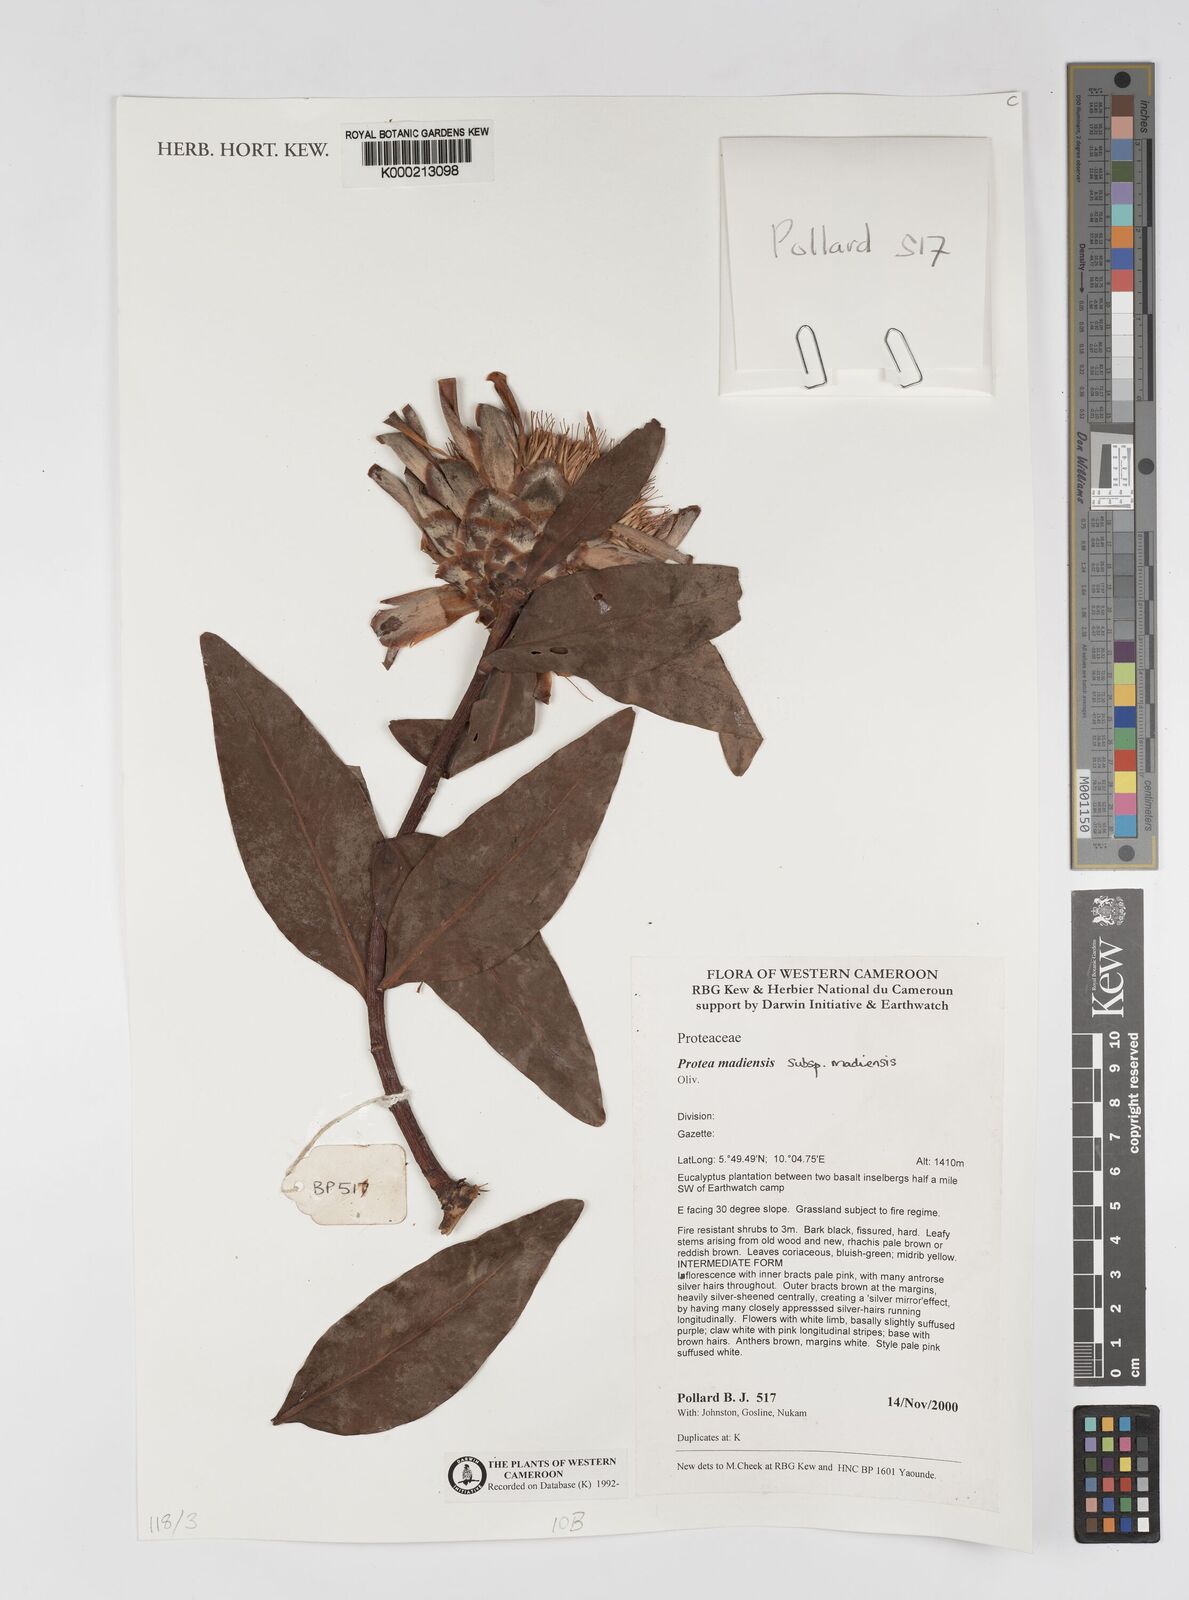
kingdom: Plantae
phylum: Tracheophyta
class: Magnoliopsida
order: Proteales
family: Proteaceae
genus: Protea
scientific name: Protea madiensis
